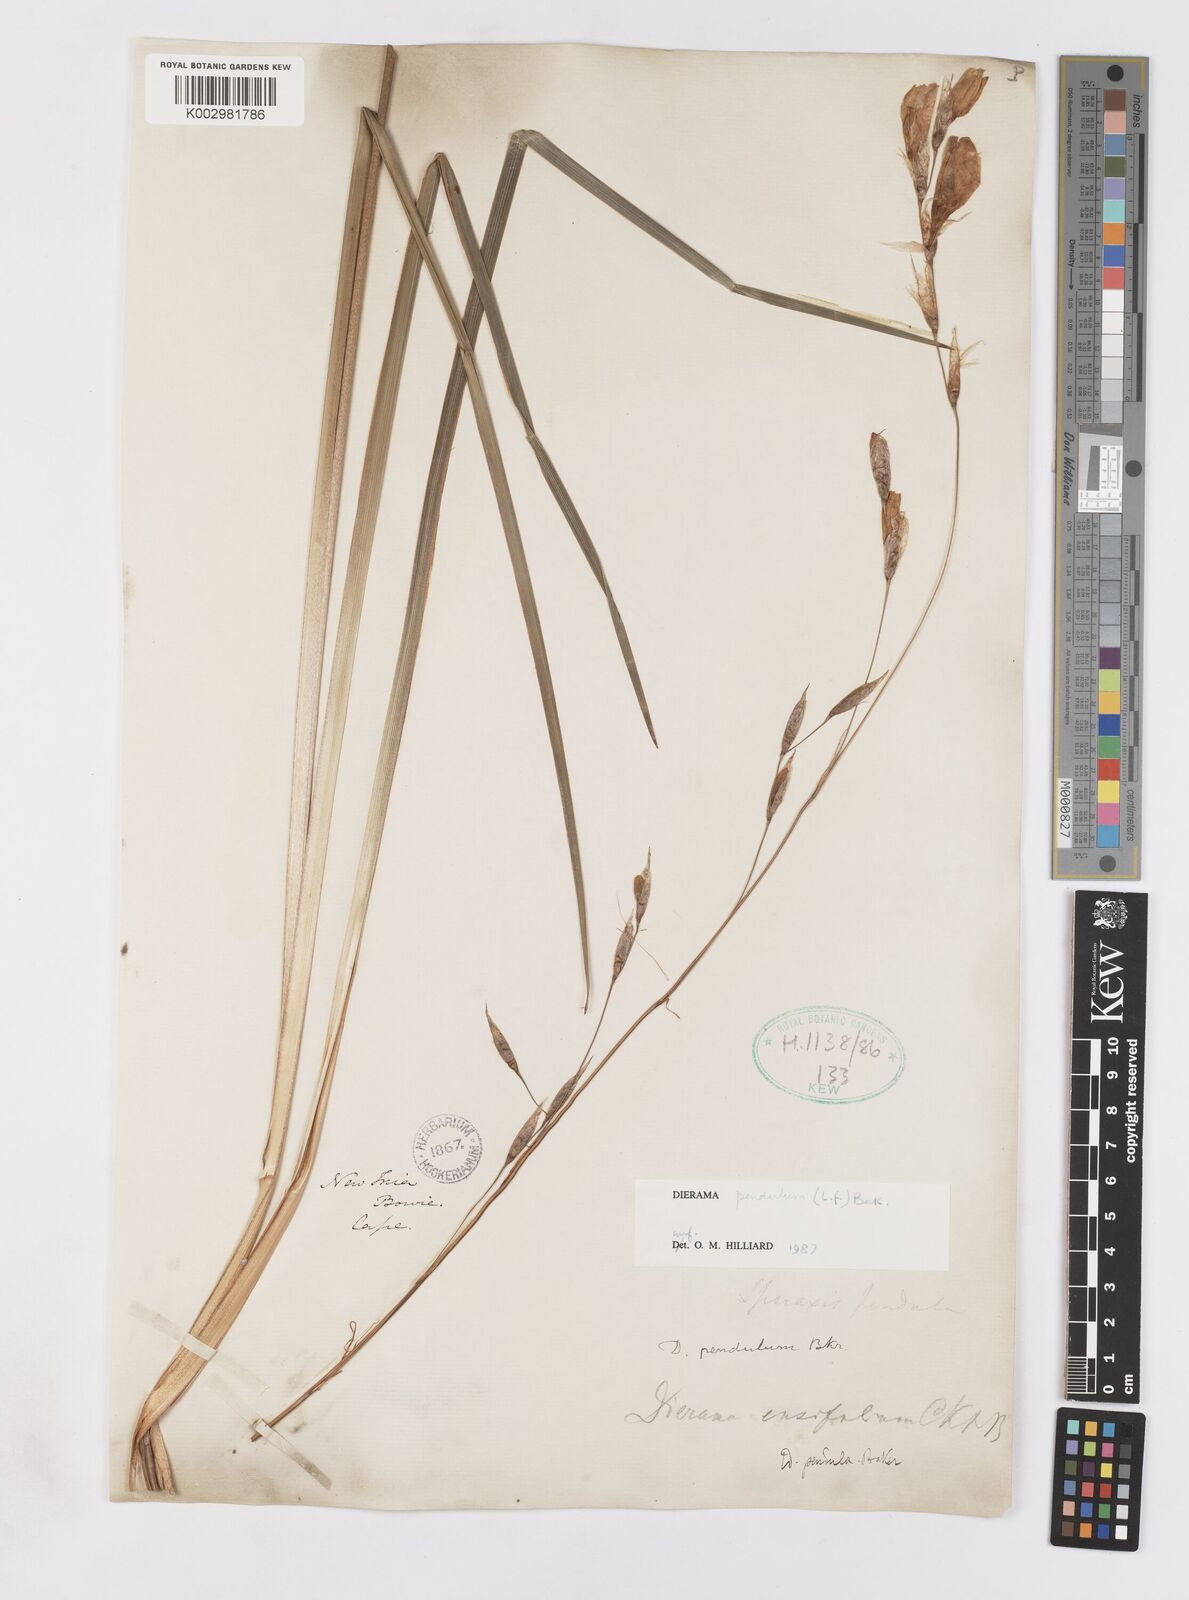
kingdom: Plantae
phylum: Tracheophyta
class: Liliopsida
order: Asparagales
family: Iridaceae
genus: Dierama
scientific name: Dierama pendulum
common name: Grassy-bell
